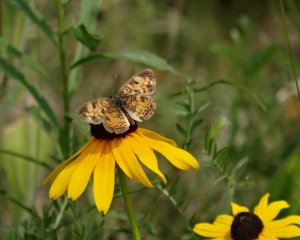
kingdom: Animalia
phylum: Arthropoda
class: Insecta
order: Lepidoptera
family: Nymphalidae
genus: Phyciodes
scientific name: Phyciodes tharos
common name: Northern Crescent
